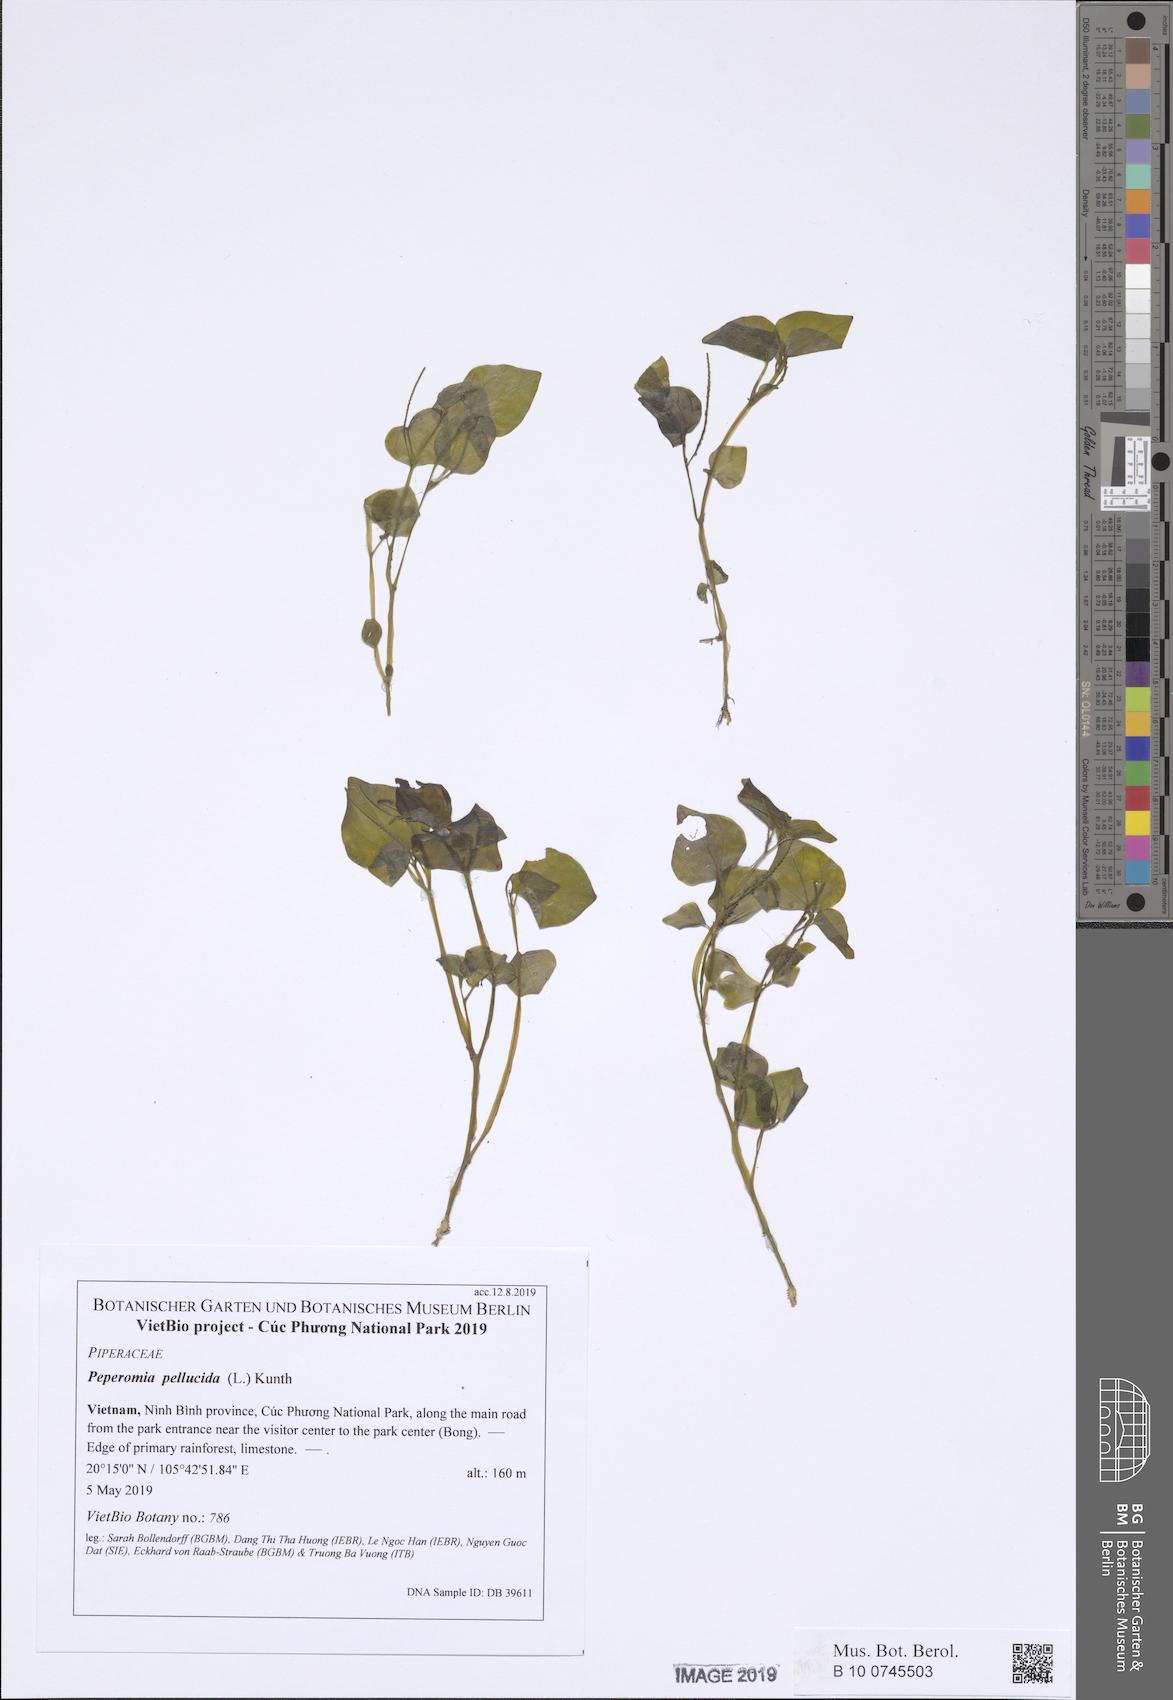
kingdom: Plantae
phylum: Tracheophyta
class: Magnoliopsida
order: Piperales
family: Piperaceae
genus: Peperomia
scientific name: Peperomia pellucida
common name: Man to man
